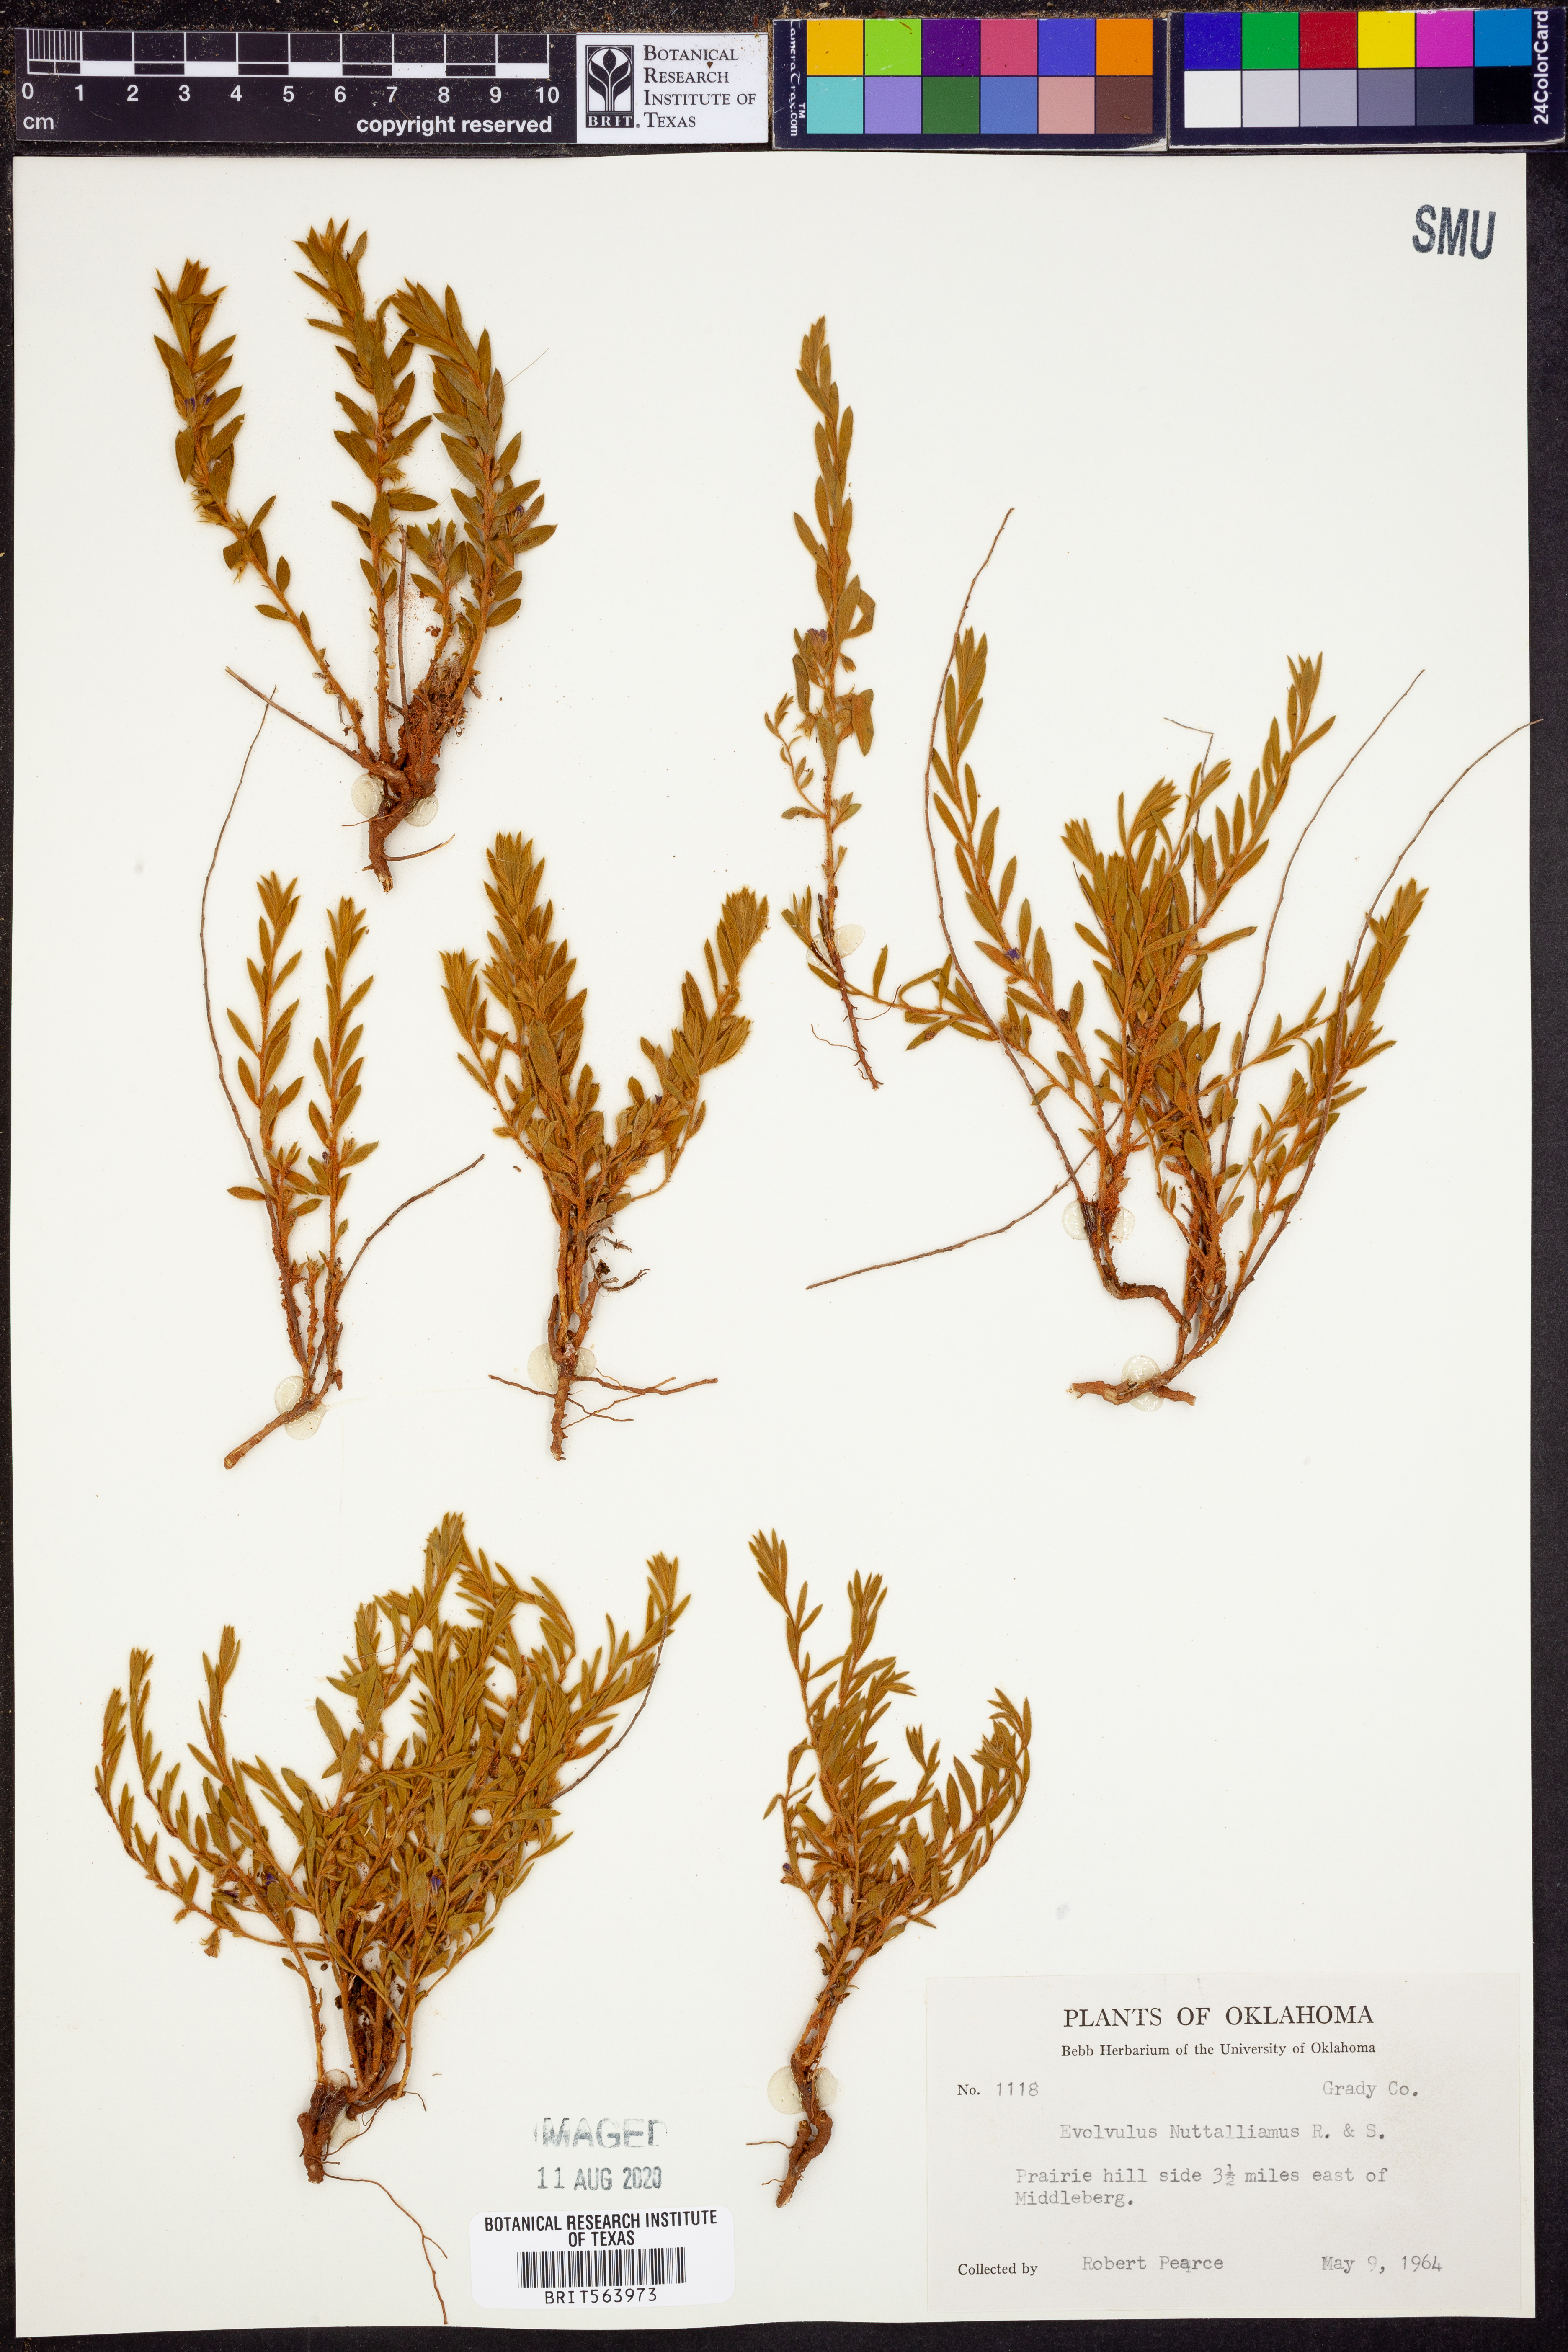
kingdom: Plantae
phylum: Tracheophyta
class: Magnoliopsida
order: Solanales
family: Convolvulaceae
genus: Evolvulus
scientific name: Evolvulus nuttallianus
